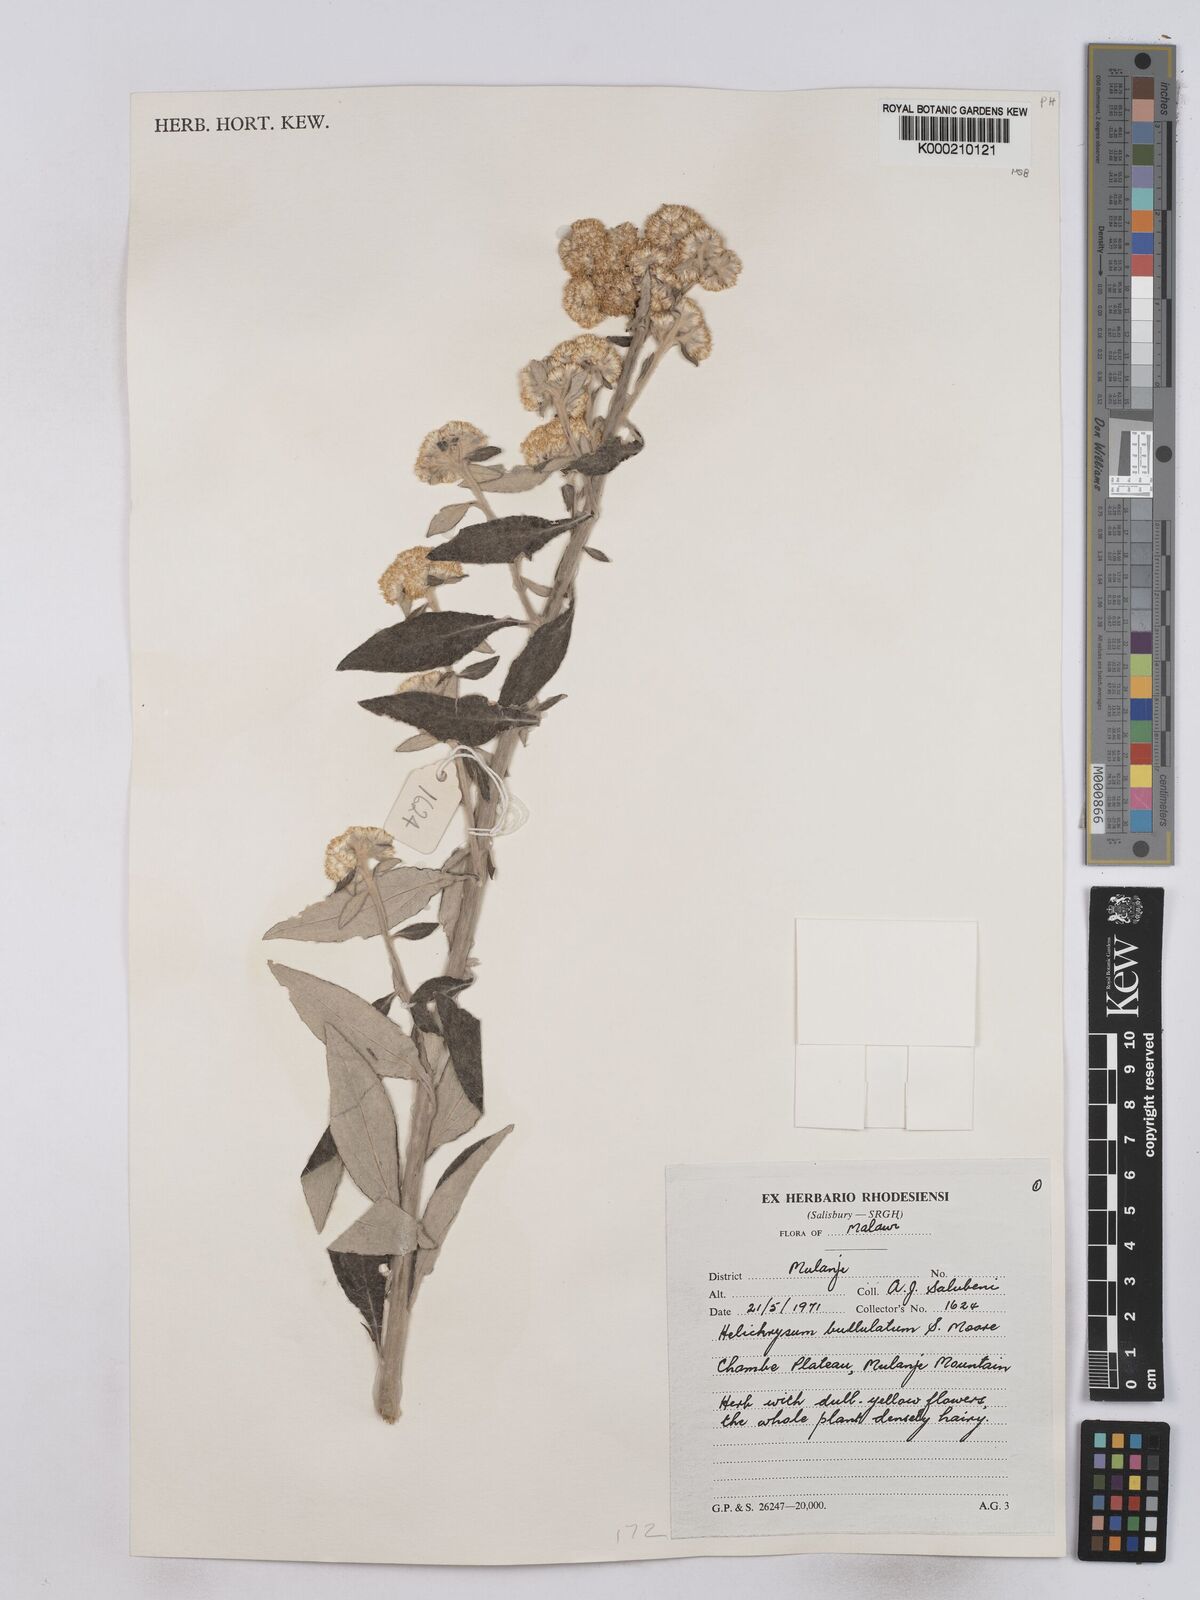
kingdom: Plantae
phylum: Tracheophyta
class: Magnoliopsida
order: Asterales
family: Asteraceae
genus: Helichrysum
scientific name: Helichrysum bullulatum
